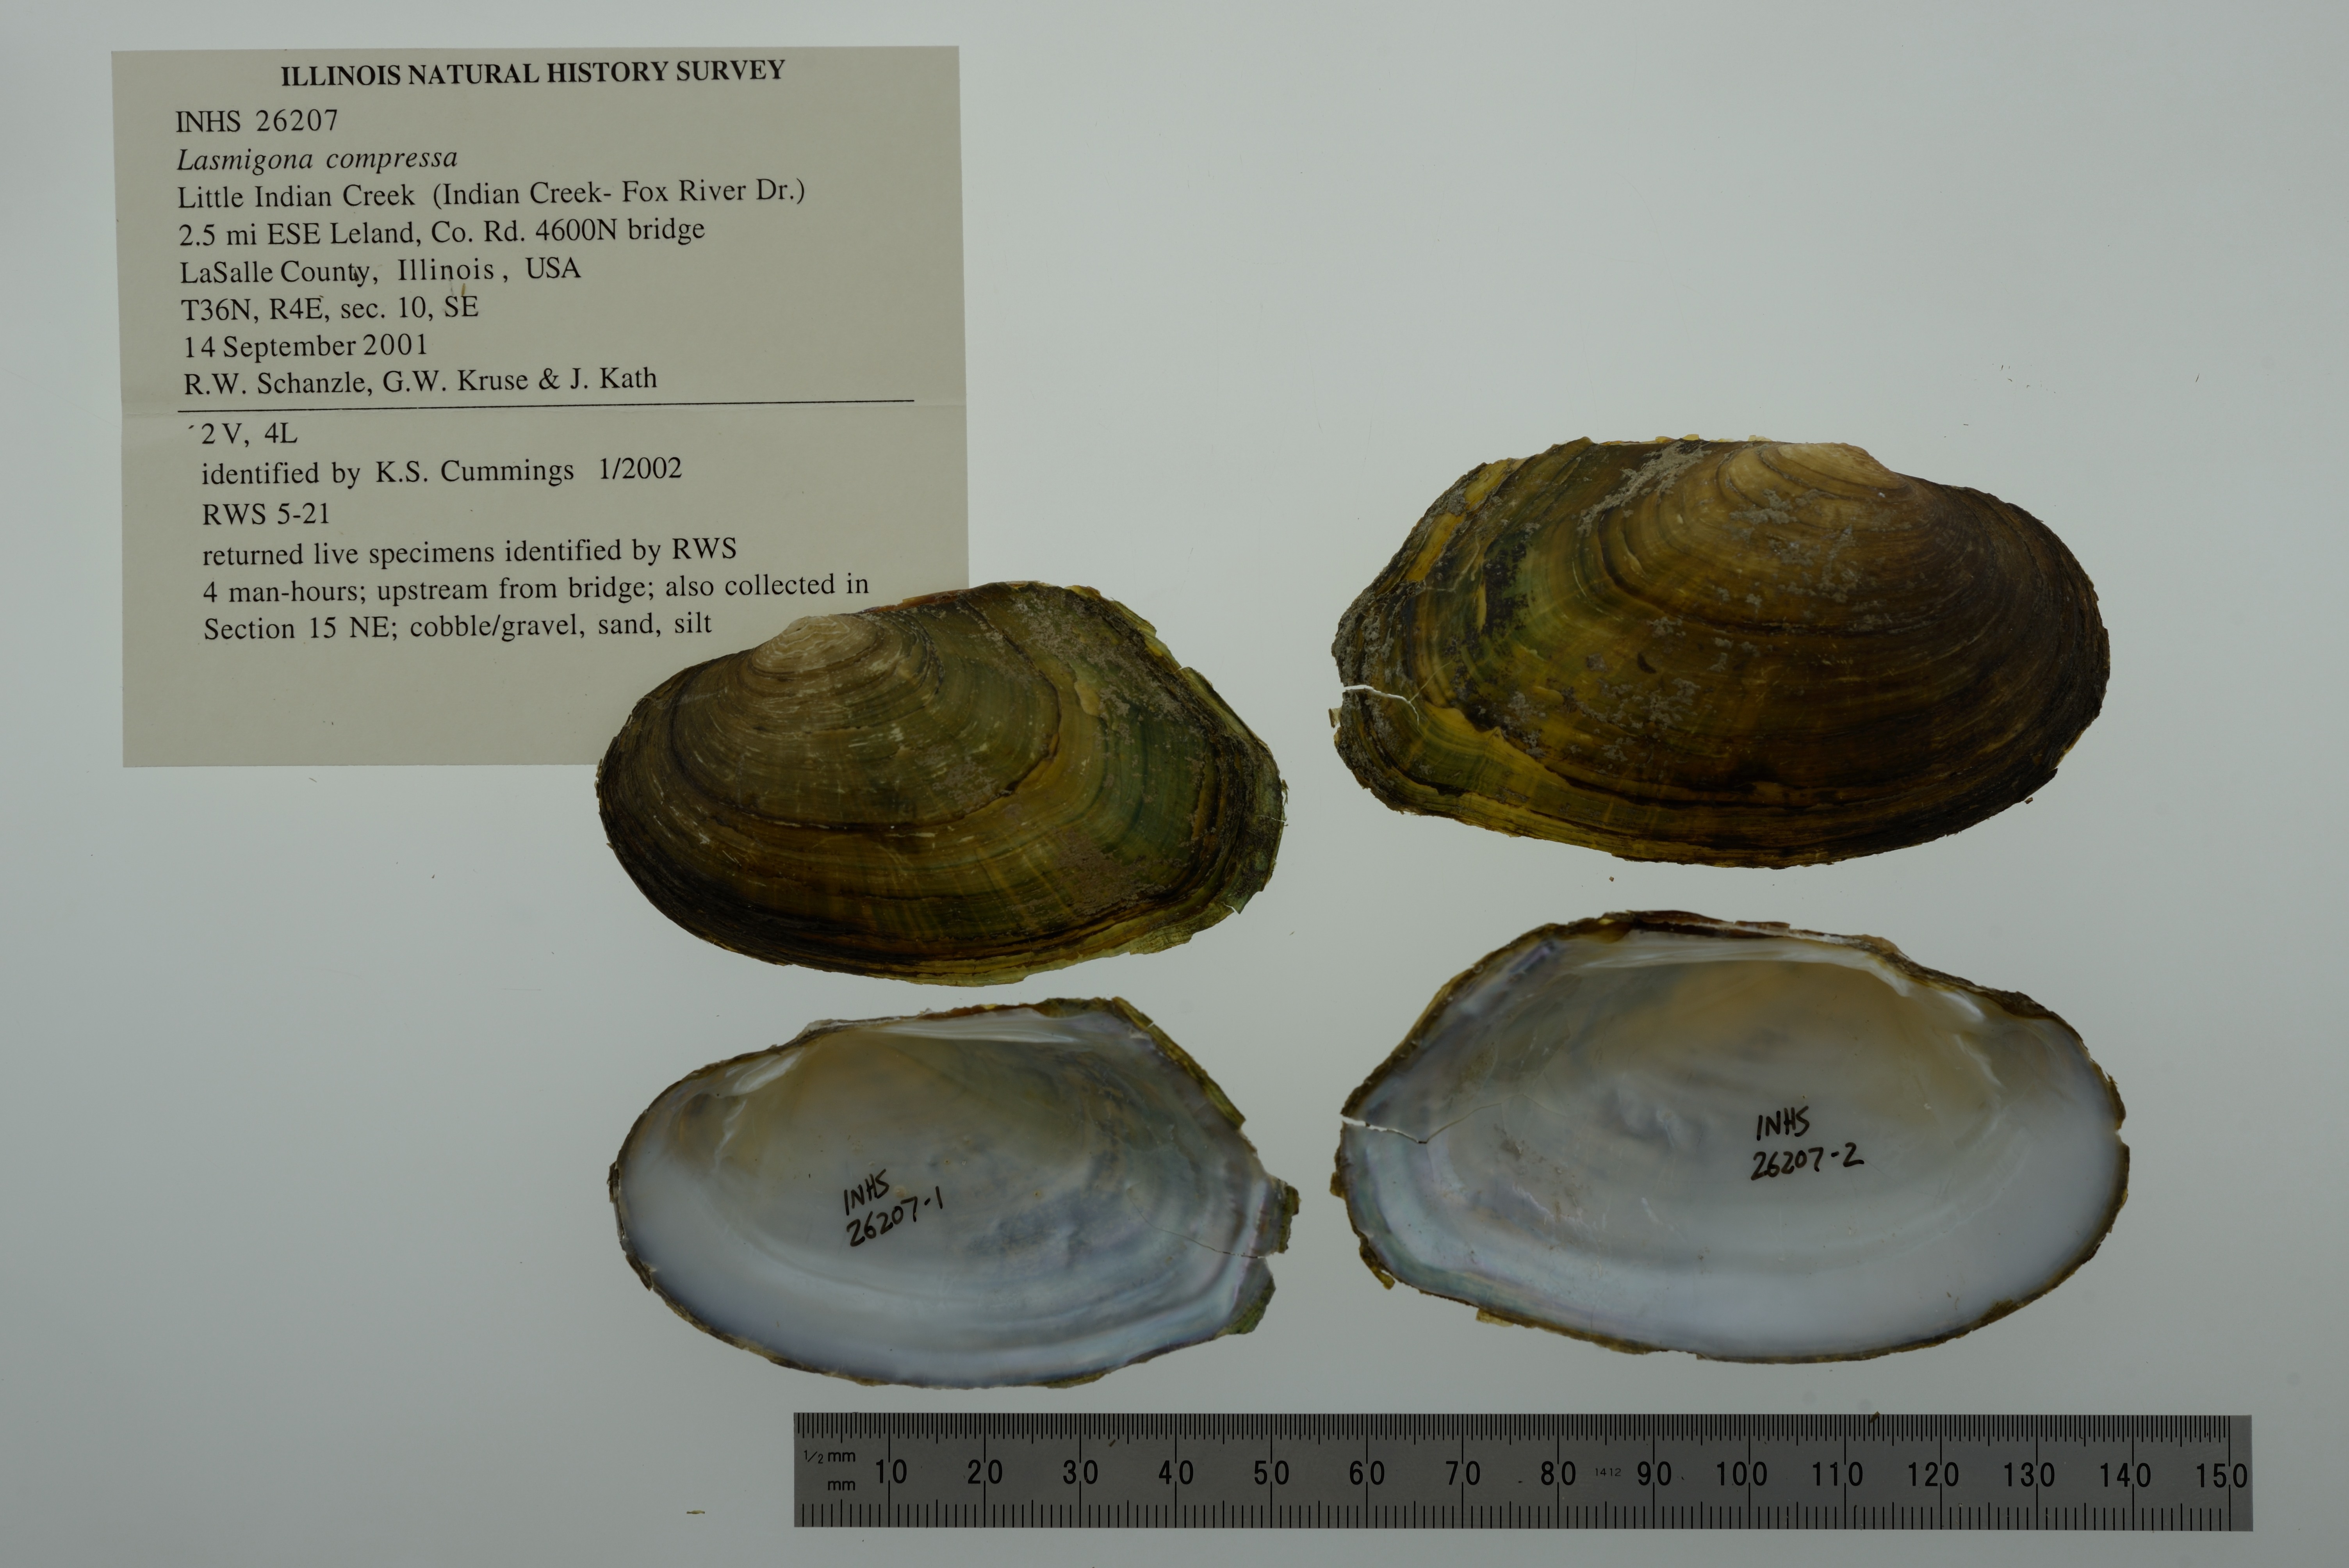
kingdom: Animalia
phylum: Mollusca
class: Bivalvia
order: Unionida
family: Unionidae
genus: Lasmigona
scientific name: Lasmigona compressa
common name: Creek heelsplitter
